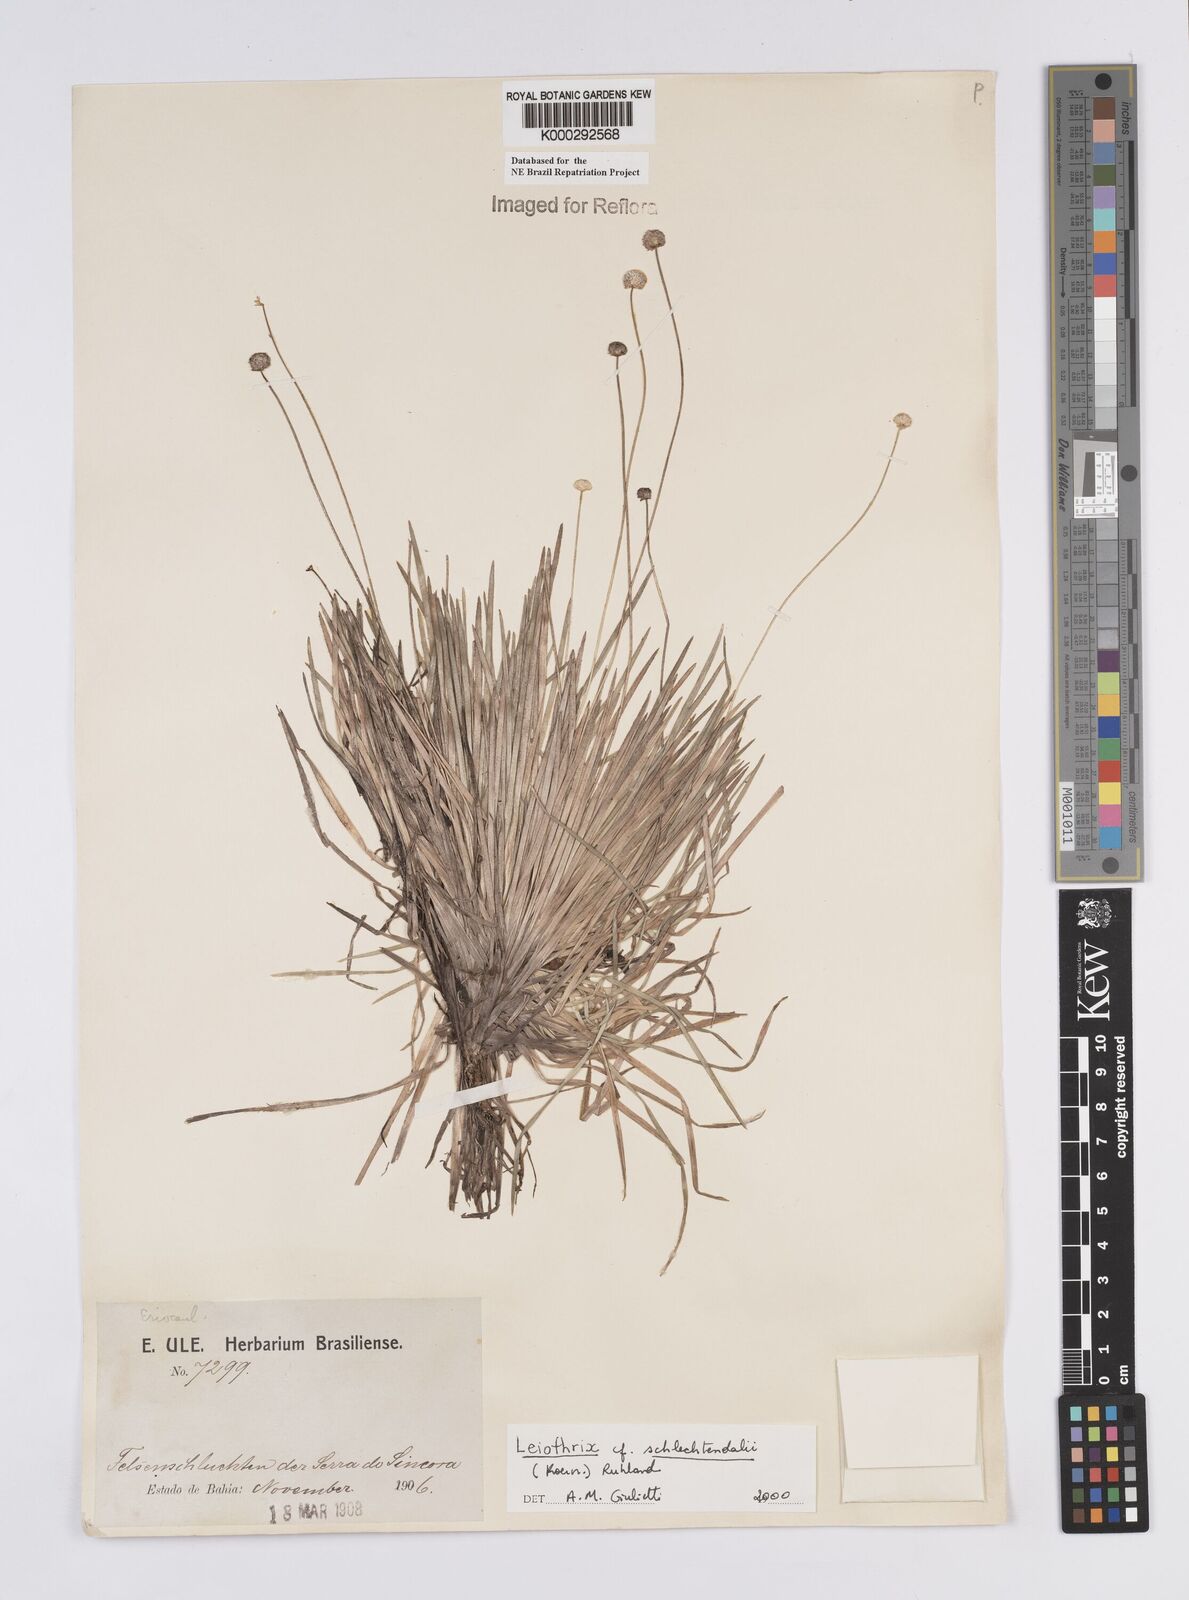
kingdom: Plantae
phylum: Tracheophyta
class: Liliopsida
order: Poales
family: Eriocaulaceae
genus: Leiothrix
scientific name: Leiothrix schlechtendalii
